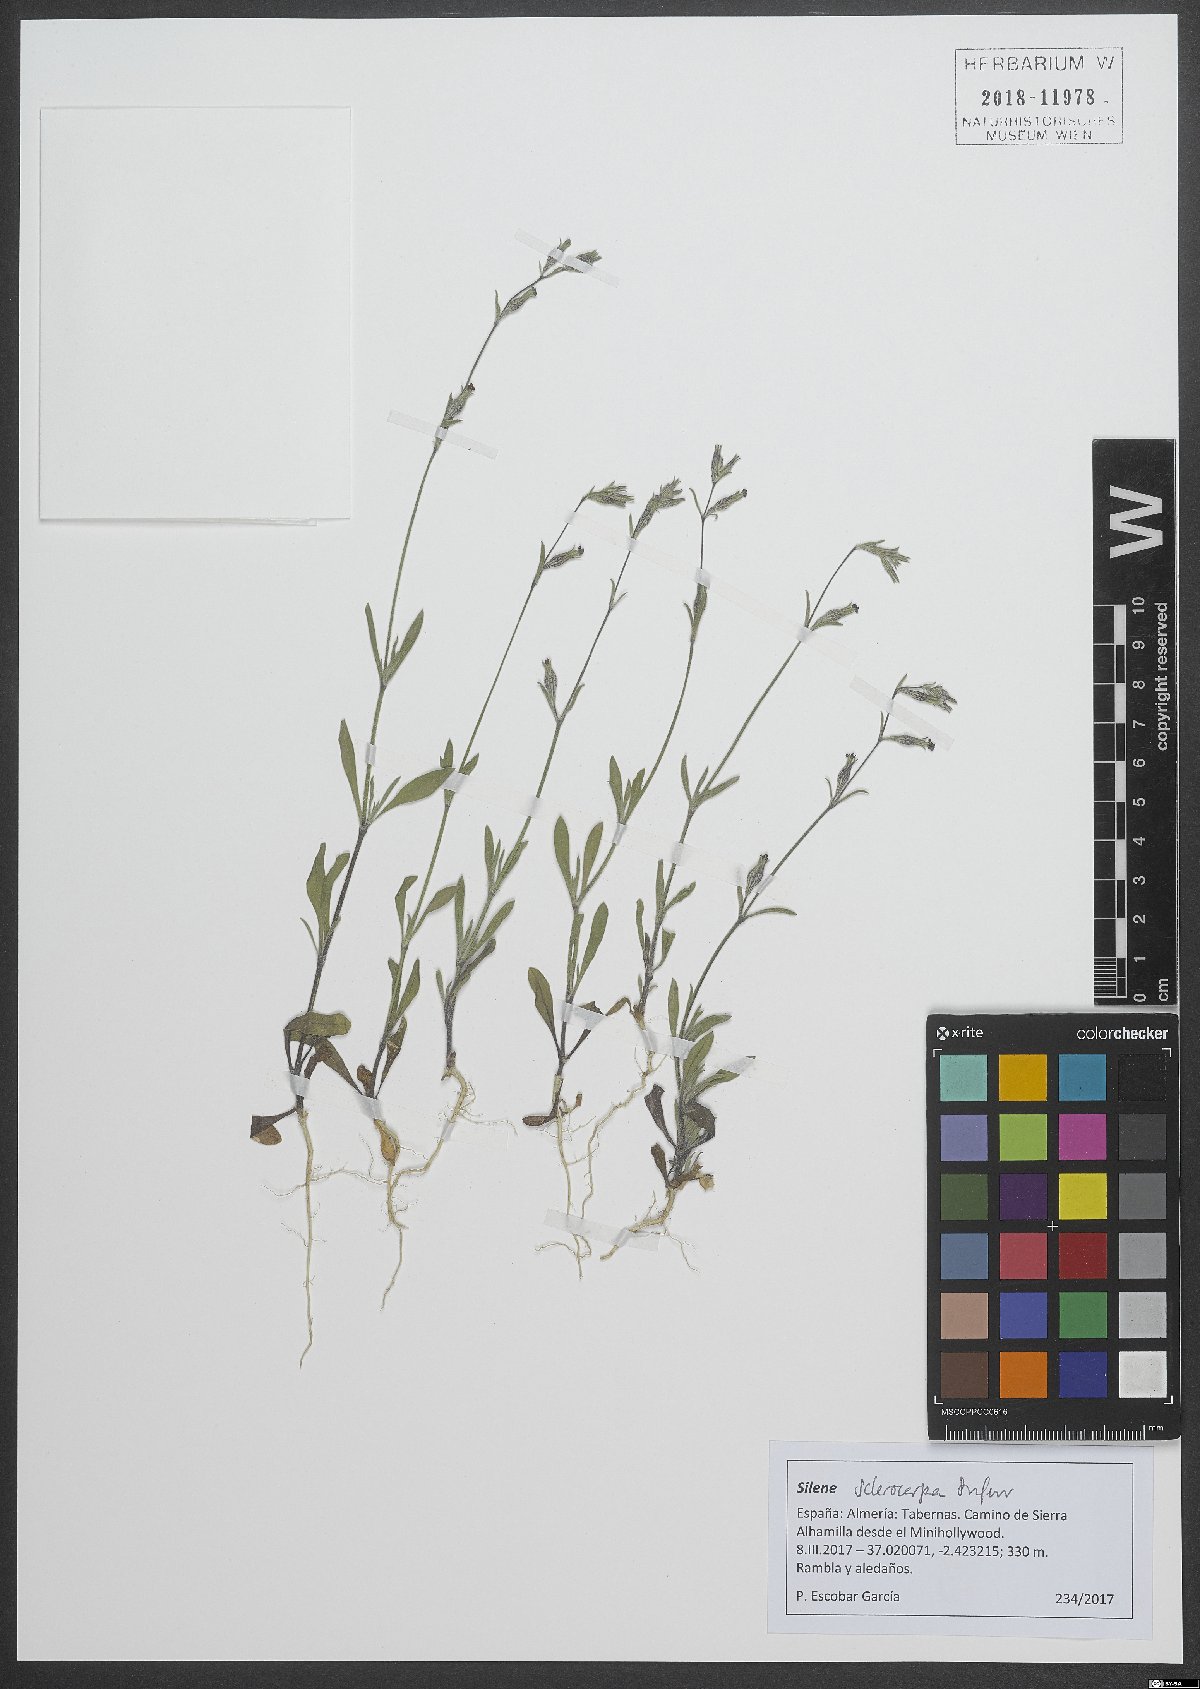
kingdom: Plantae
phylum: Tracheophyta
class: Magnoliopsida
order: Caryophyllales
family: Caryophyllaceae
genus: Silene
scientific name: Silene sclerocarpa
